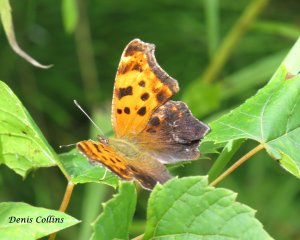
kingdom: Animalia
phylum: Arthropoda
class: Insecta
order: Lepidoptera
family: Nymphalidae
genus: Polygonia
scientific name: Polygonia comma
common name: Eastern Comma
